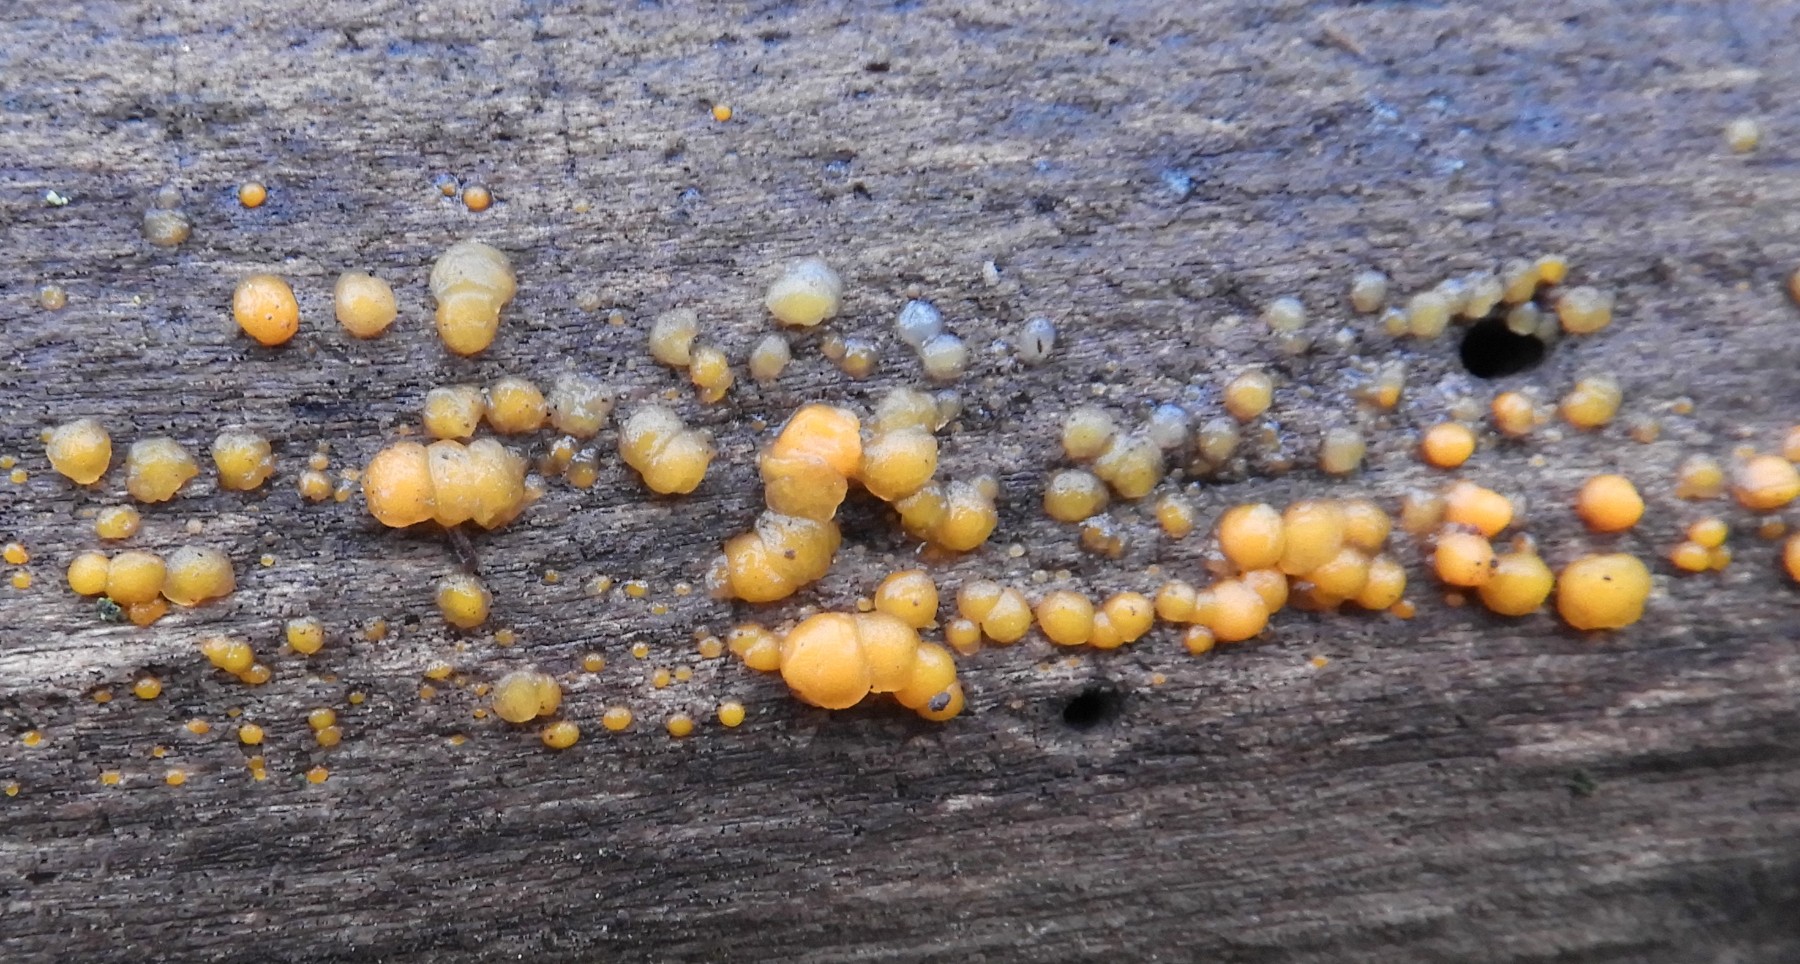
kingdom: Fungi
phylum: Basidiomycota
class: Dacrymycetes
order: Dacrymycetales
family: Dacrymycetaceae
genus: Dacrymyces
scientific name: Dacrymyces stillatus
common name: almindelig tåresvamp
